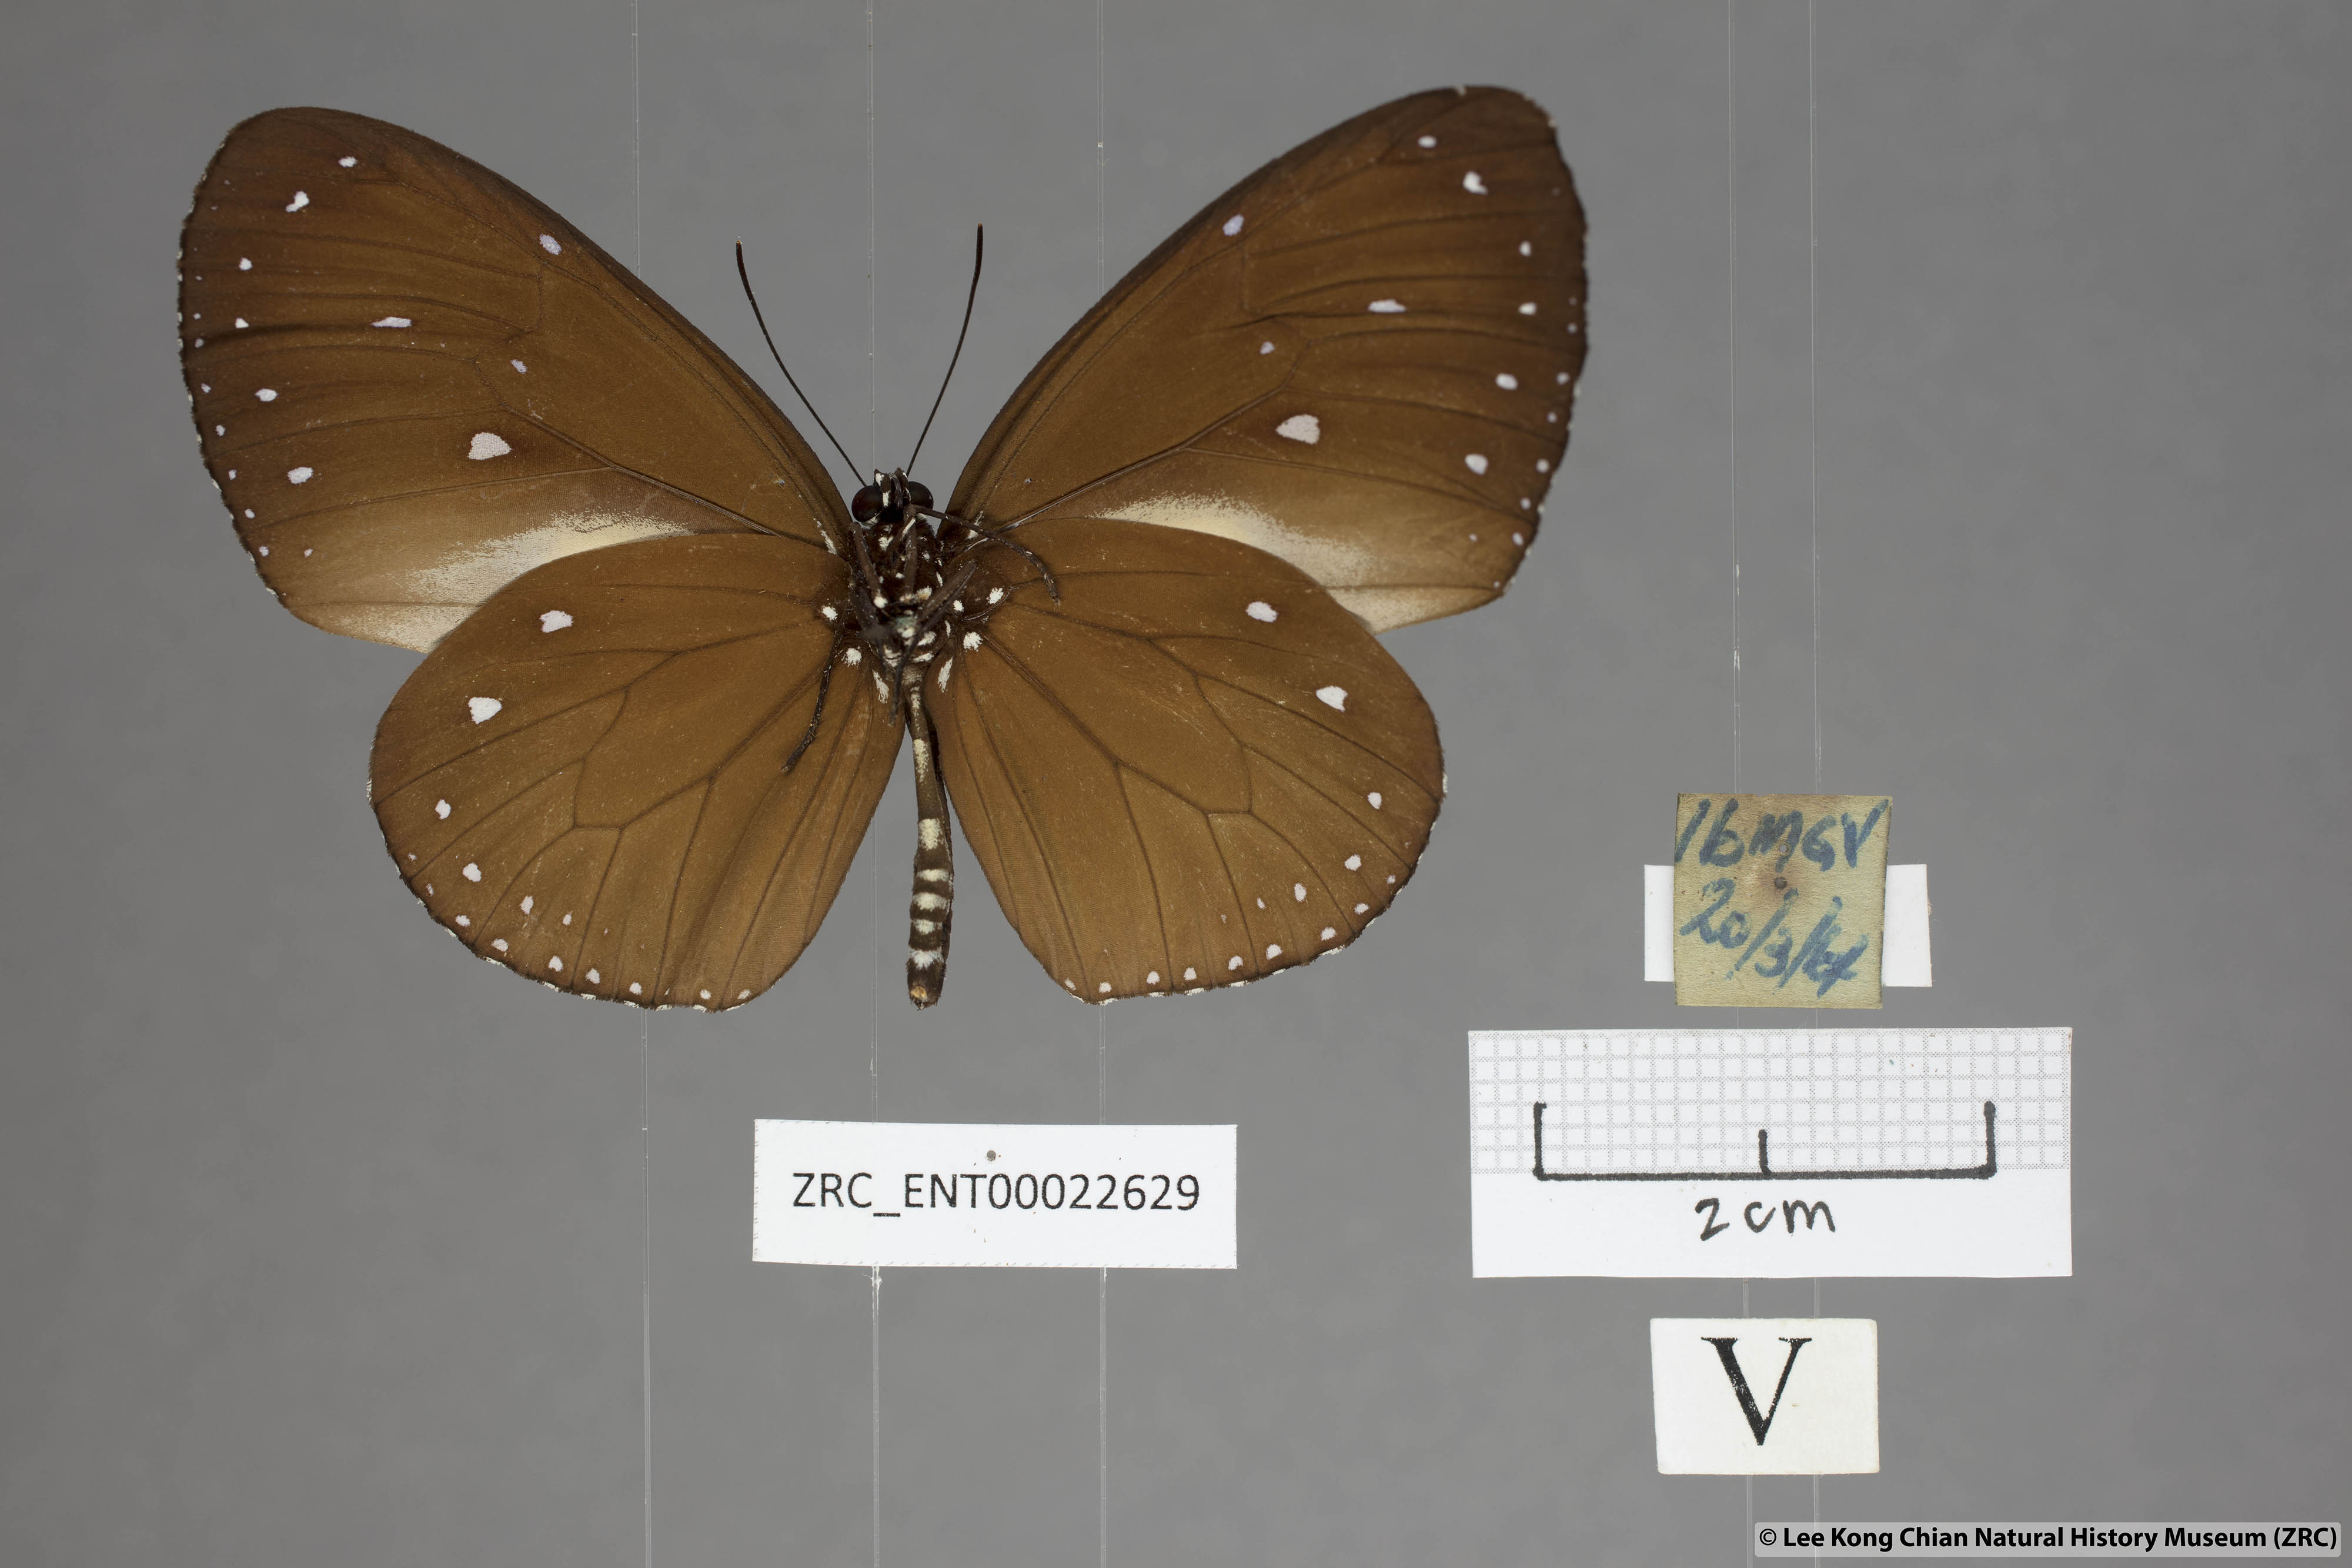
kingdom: Animalia
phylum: Arthropoda
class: Insecta
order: Lepidoptera
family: Nymphalidae
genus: Euploea
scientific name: Euploea tulliolus
